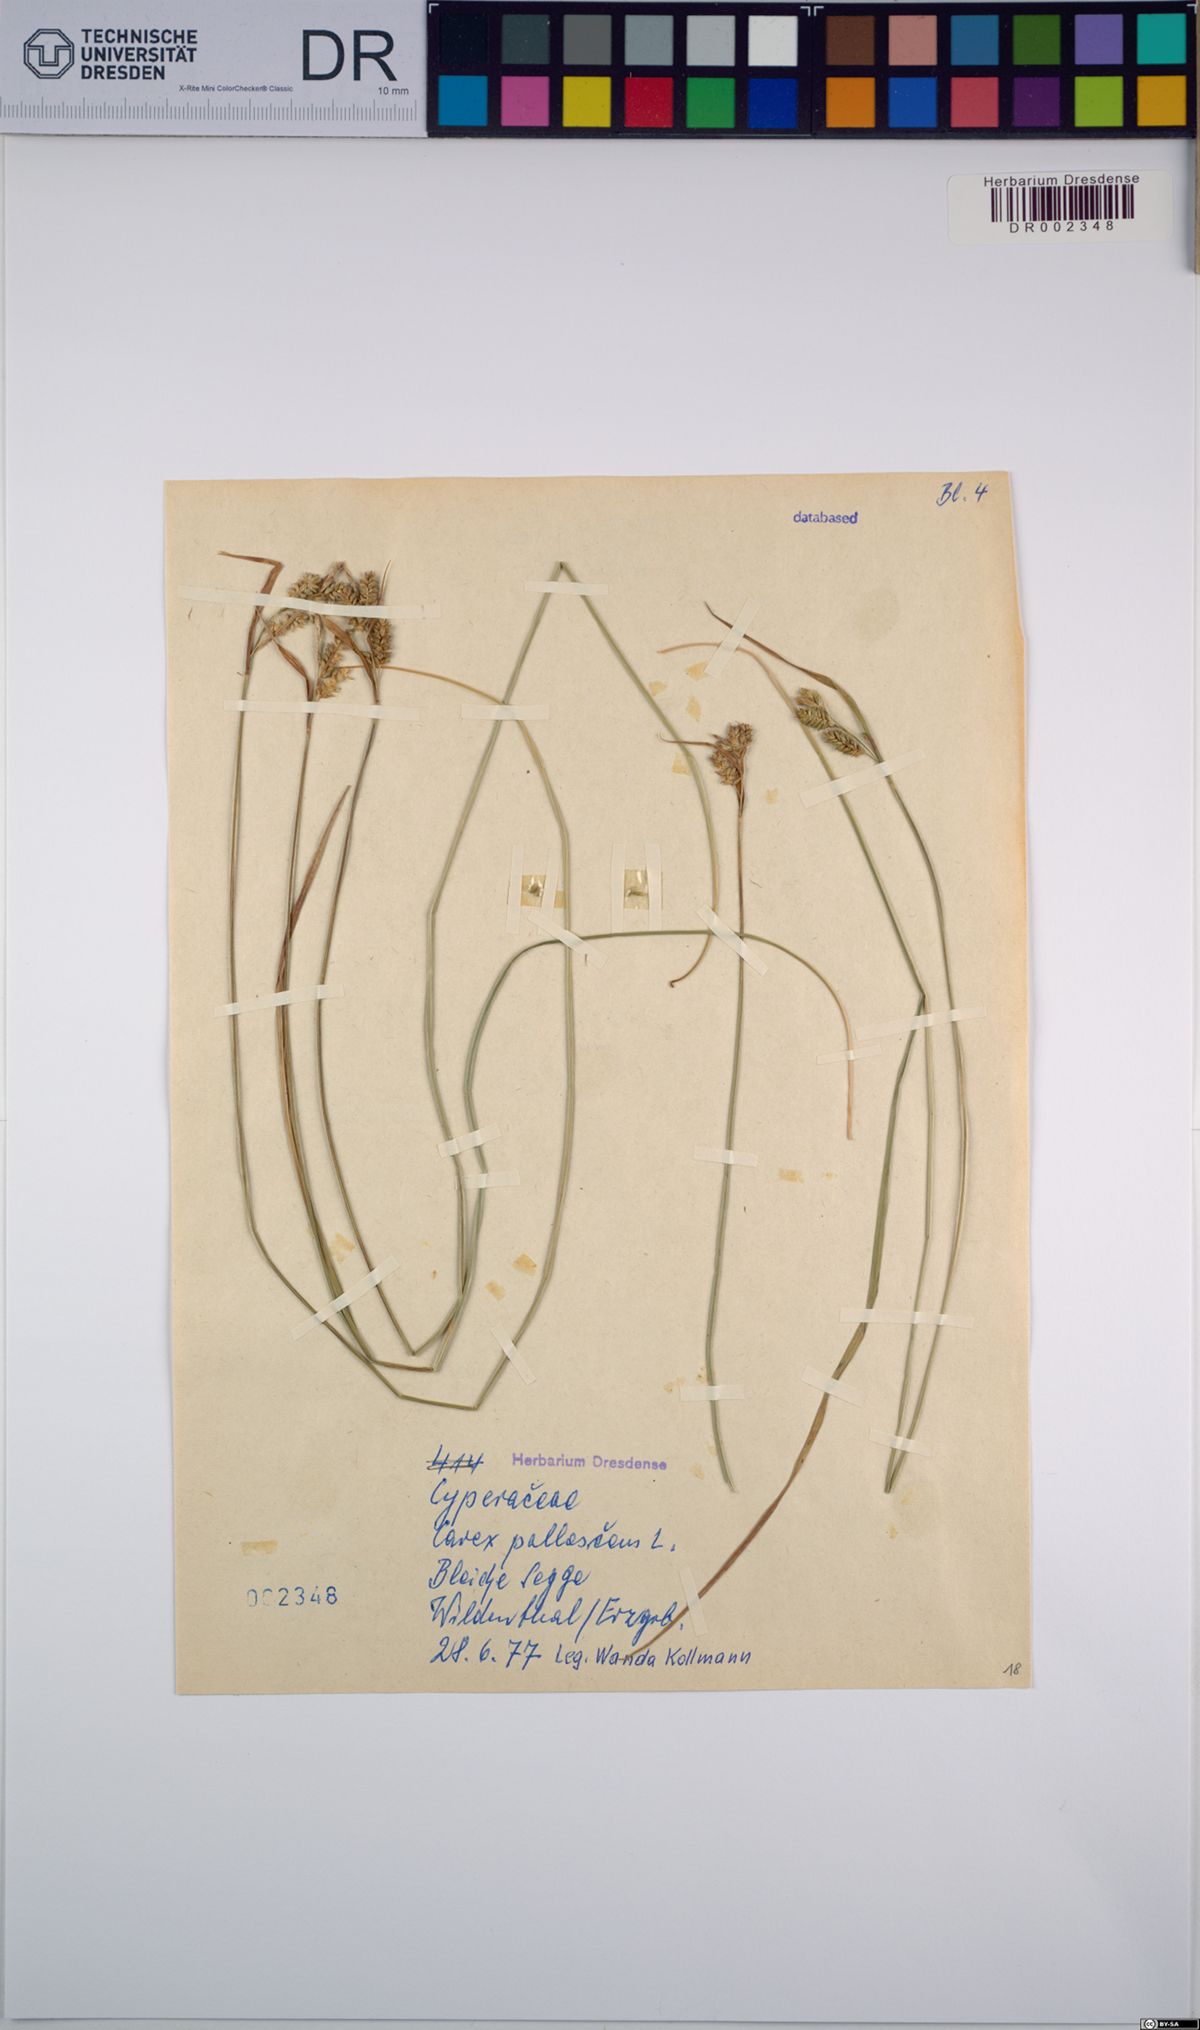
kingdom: Plantae
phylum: Tracheophyta
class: Liliopsida
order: Poales
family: Cyperaceae
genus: Carex
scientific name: Carex pallescens
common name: Pale sedge
